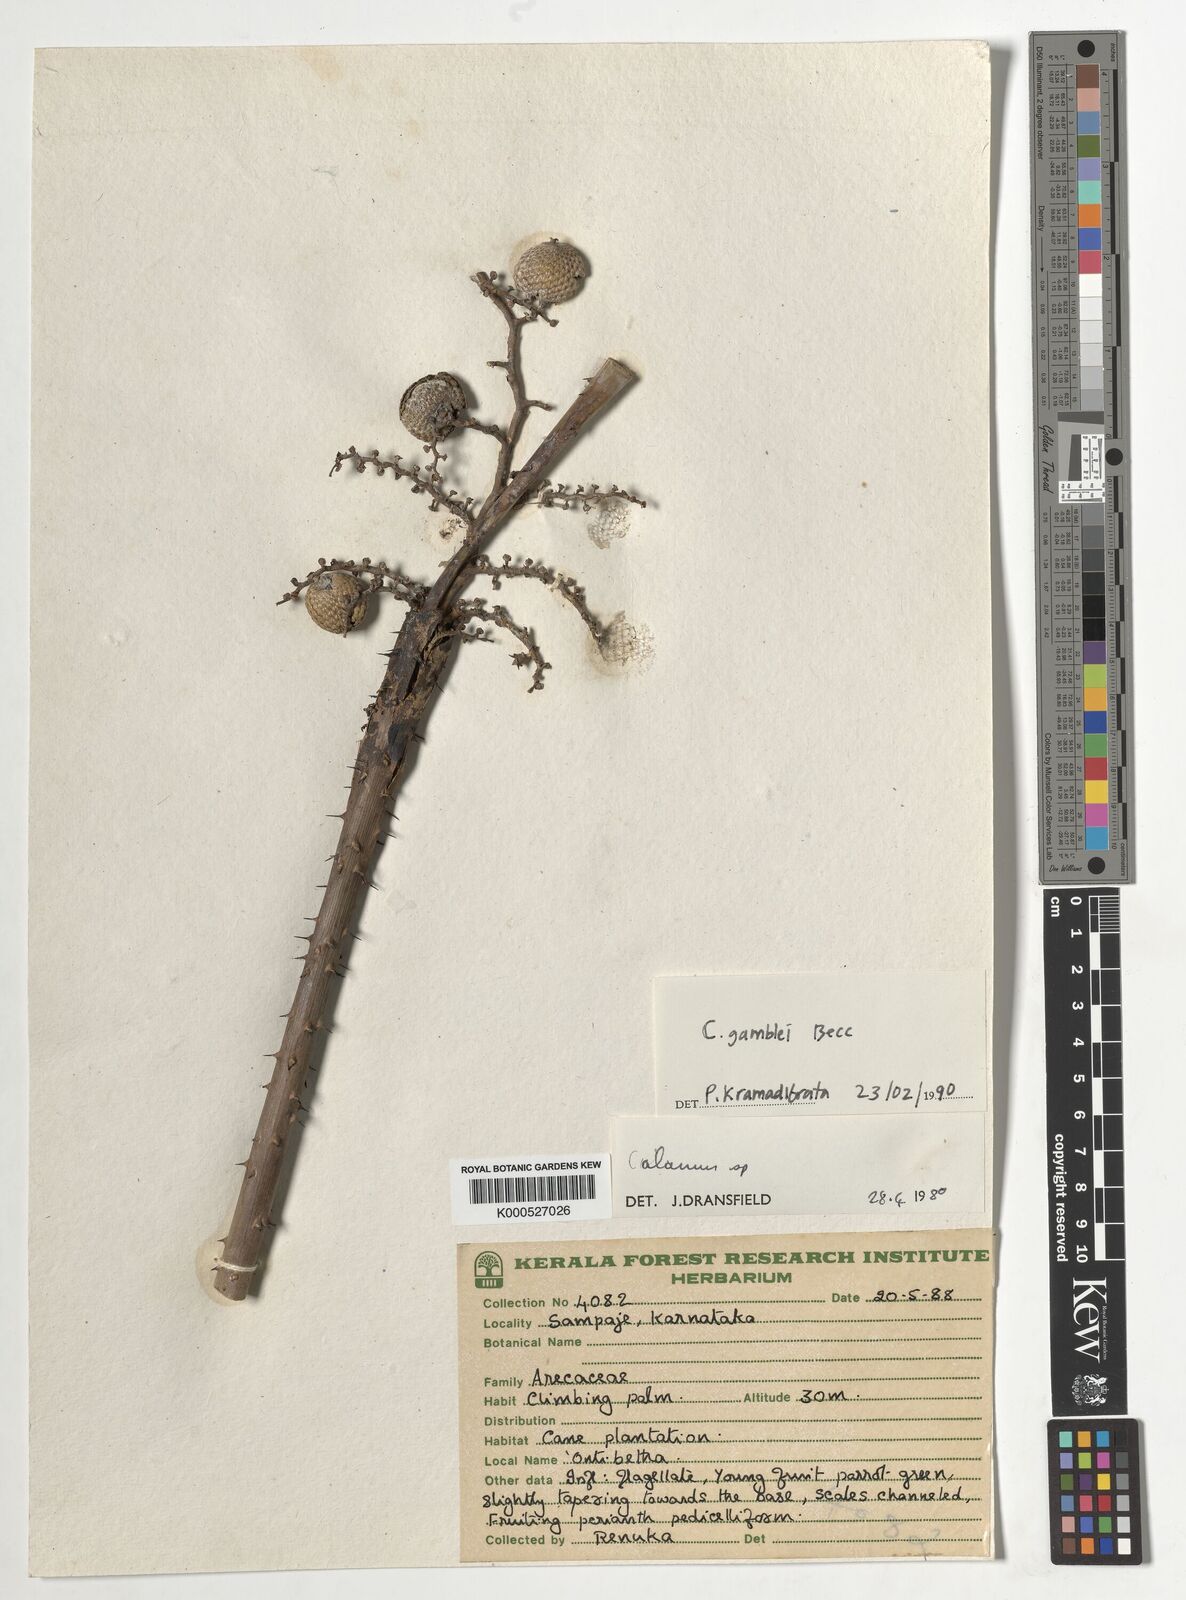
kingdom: Plantae
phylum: Tracheophyta
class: Liliopsida
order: Arecales
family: Arecaceae
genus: Calamus
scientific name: Calamus gamblei
